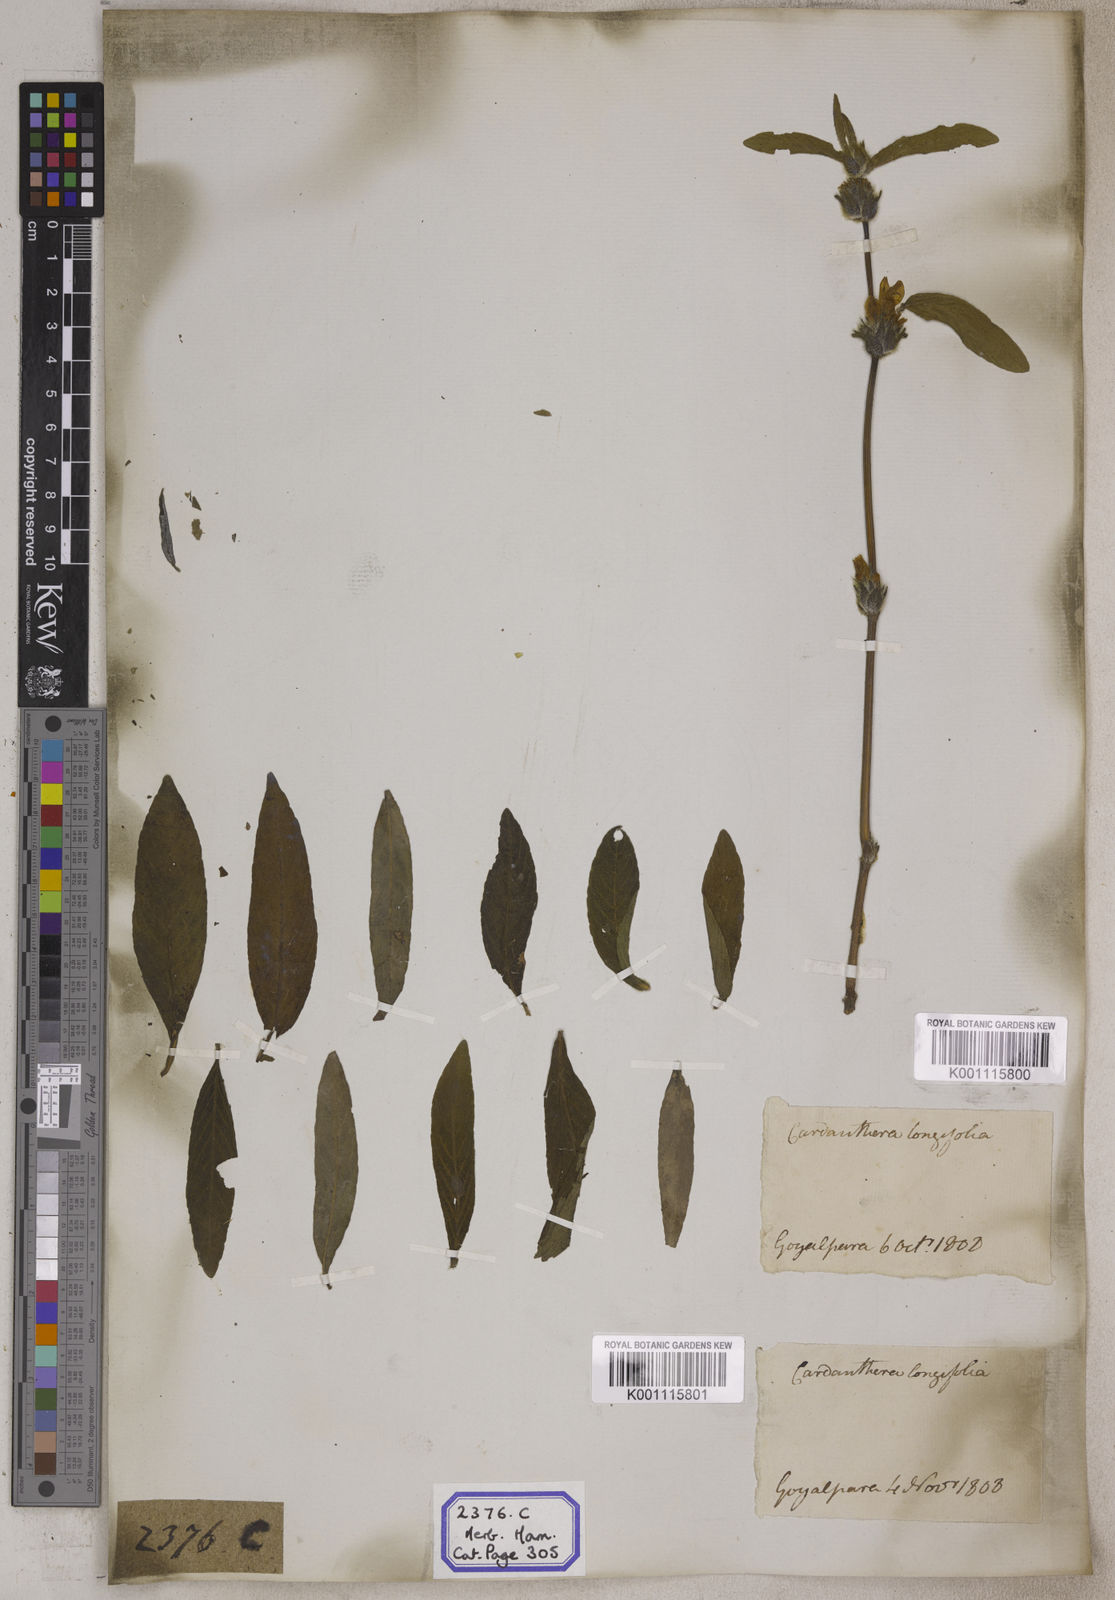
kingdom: Plantae
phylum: Tracheophyta
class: Magnoliopsida
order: Lamiales
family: Acanthaceae
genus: Hygrophila
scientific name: Hygrophila phlomoides
